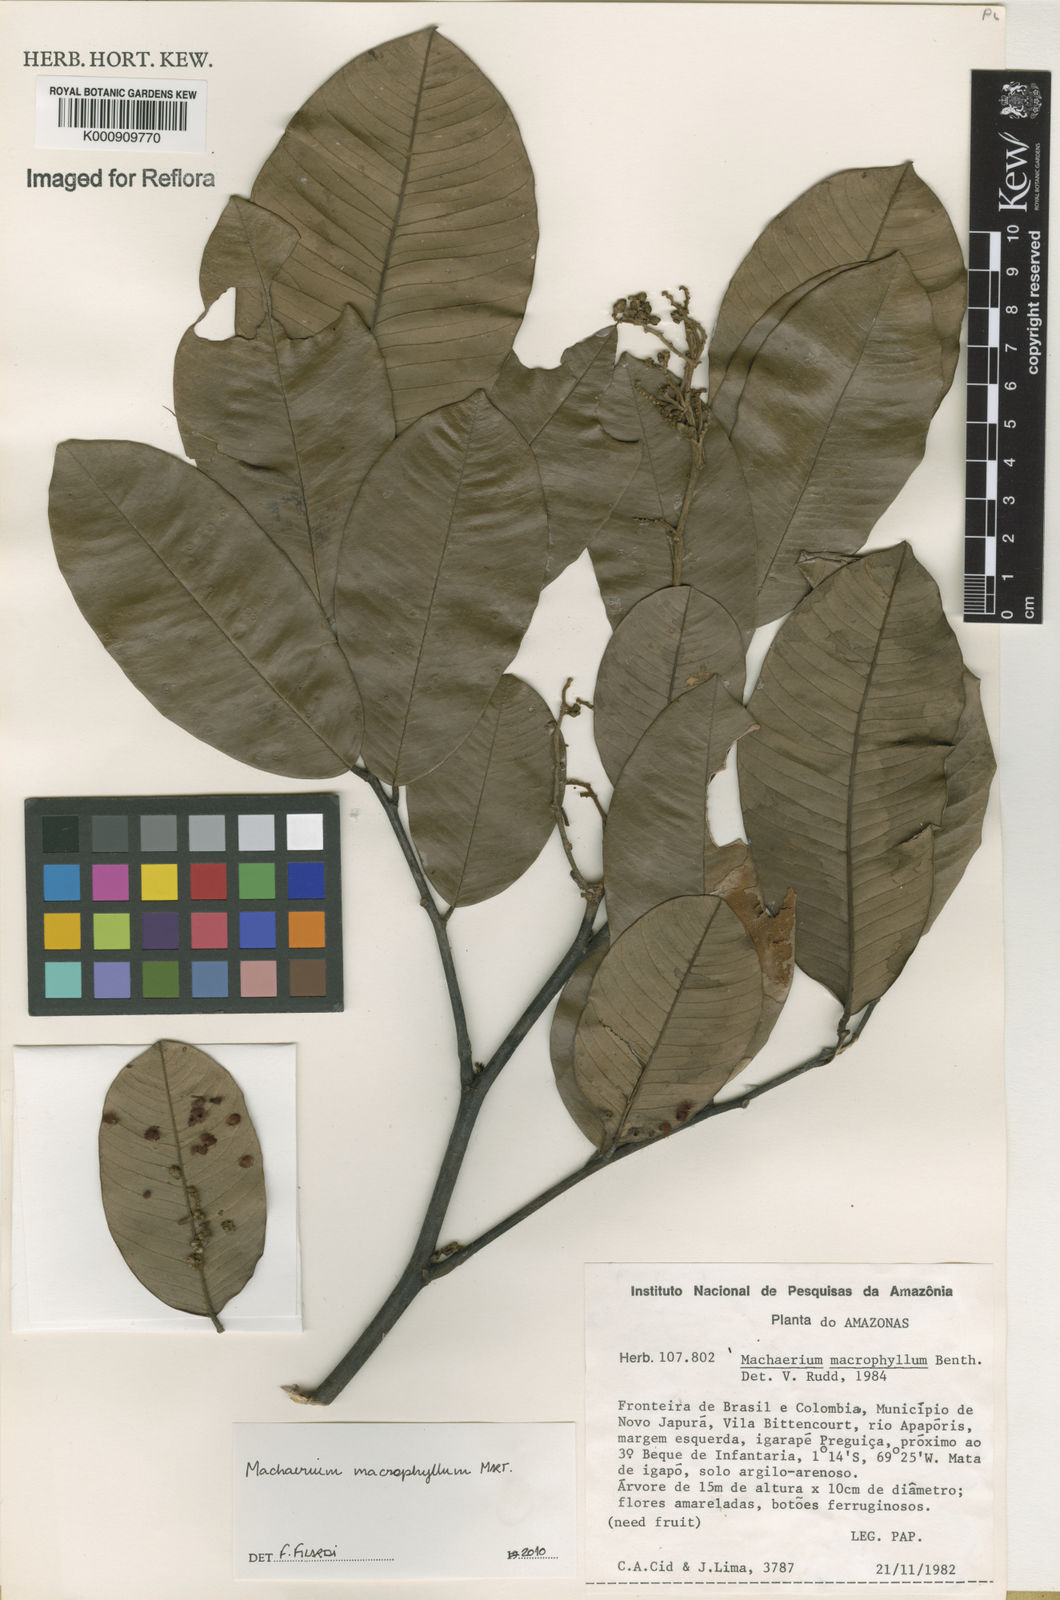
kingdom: Plantae
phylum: Tracheophyta
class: Magnoliopsida
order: Fabales
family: Fabaceae
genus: Machaerium
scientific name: Machaerium macrophyllum
